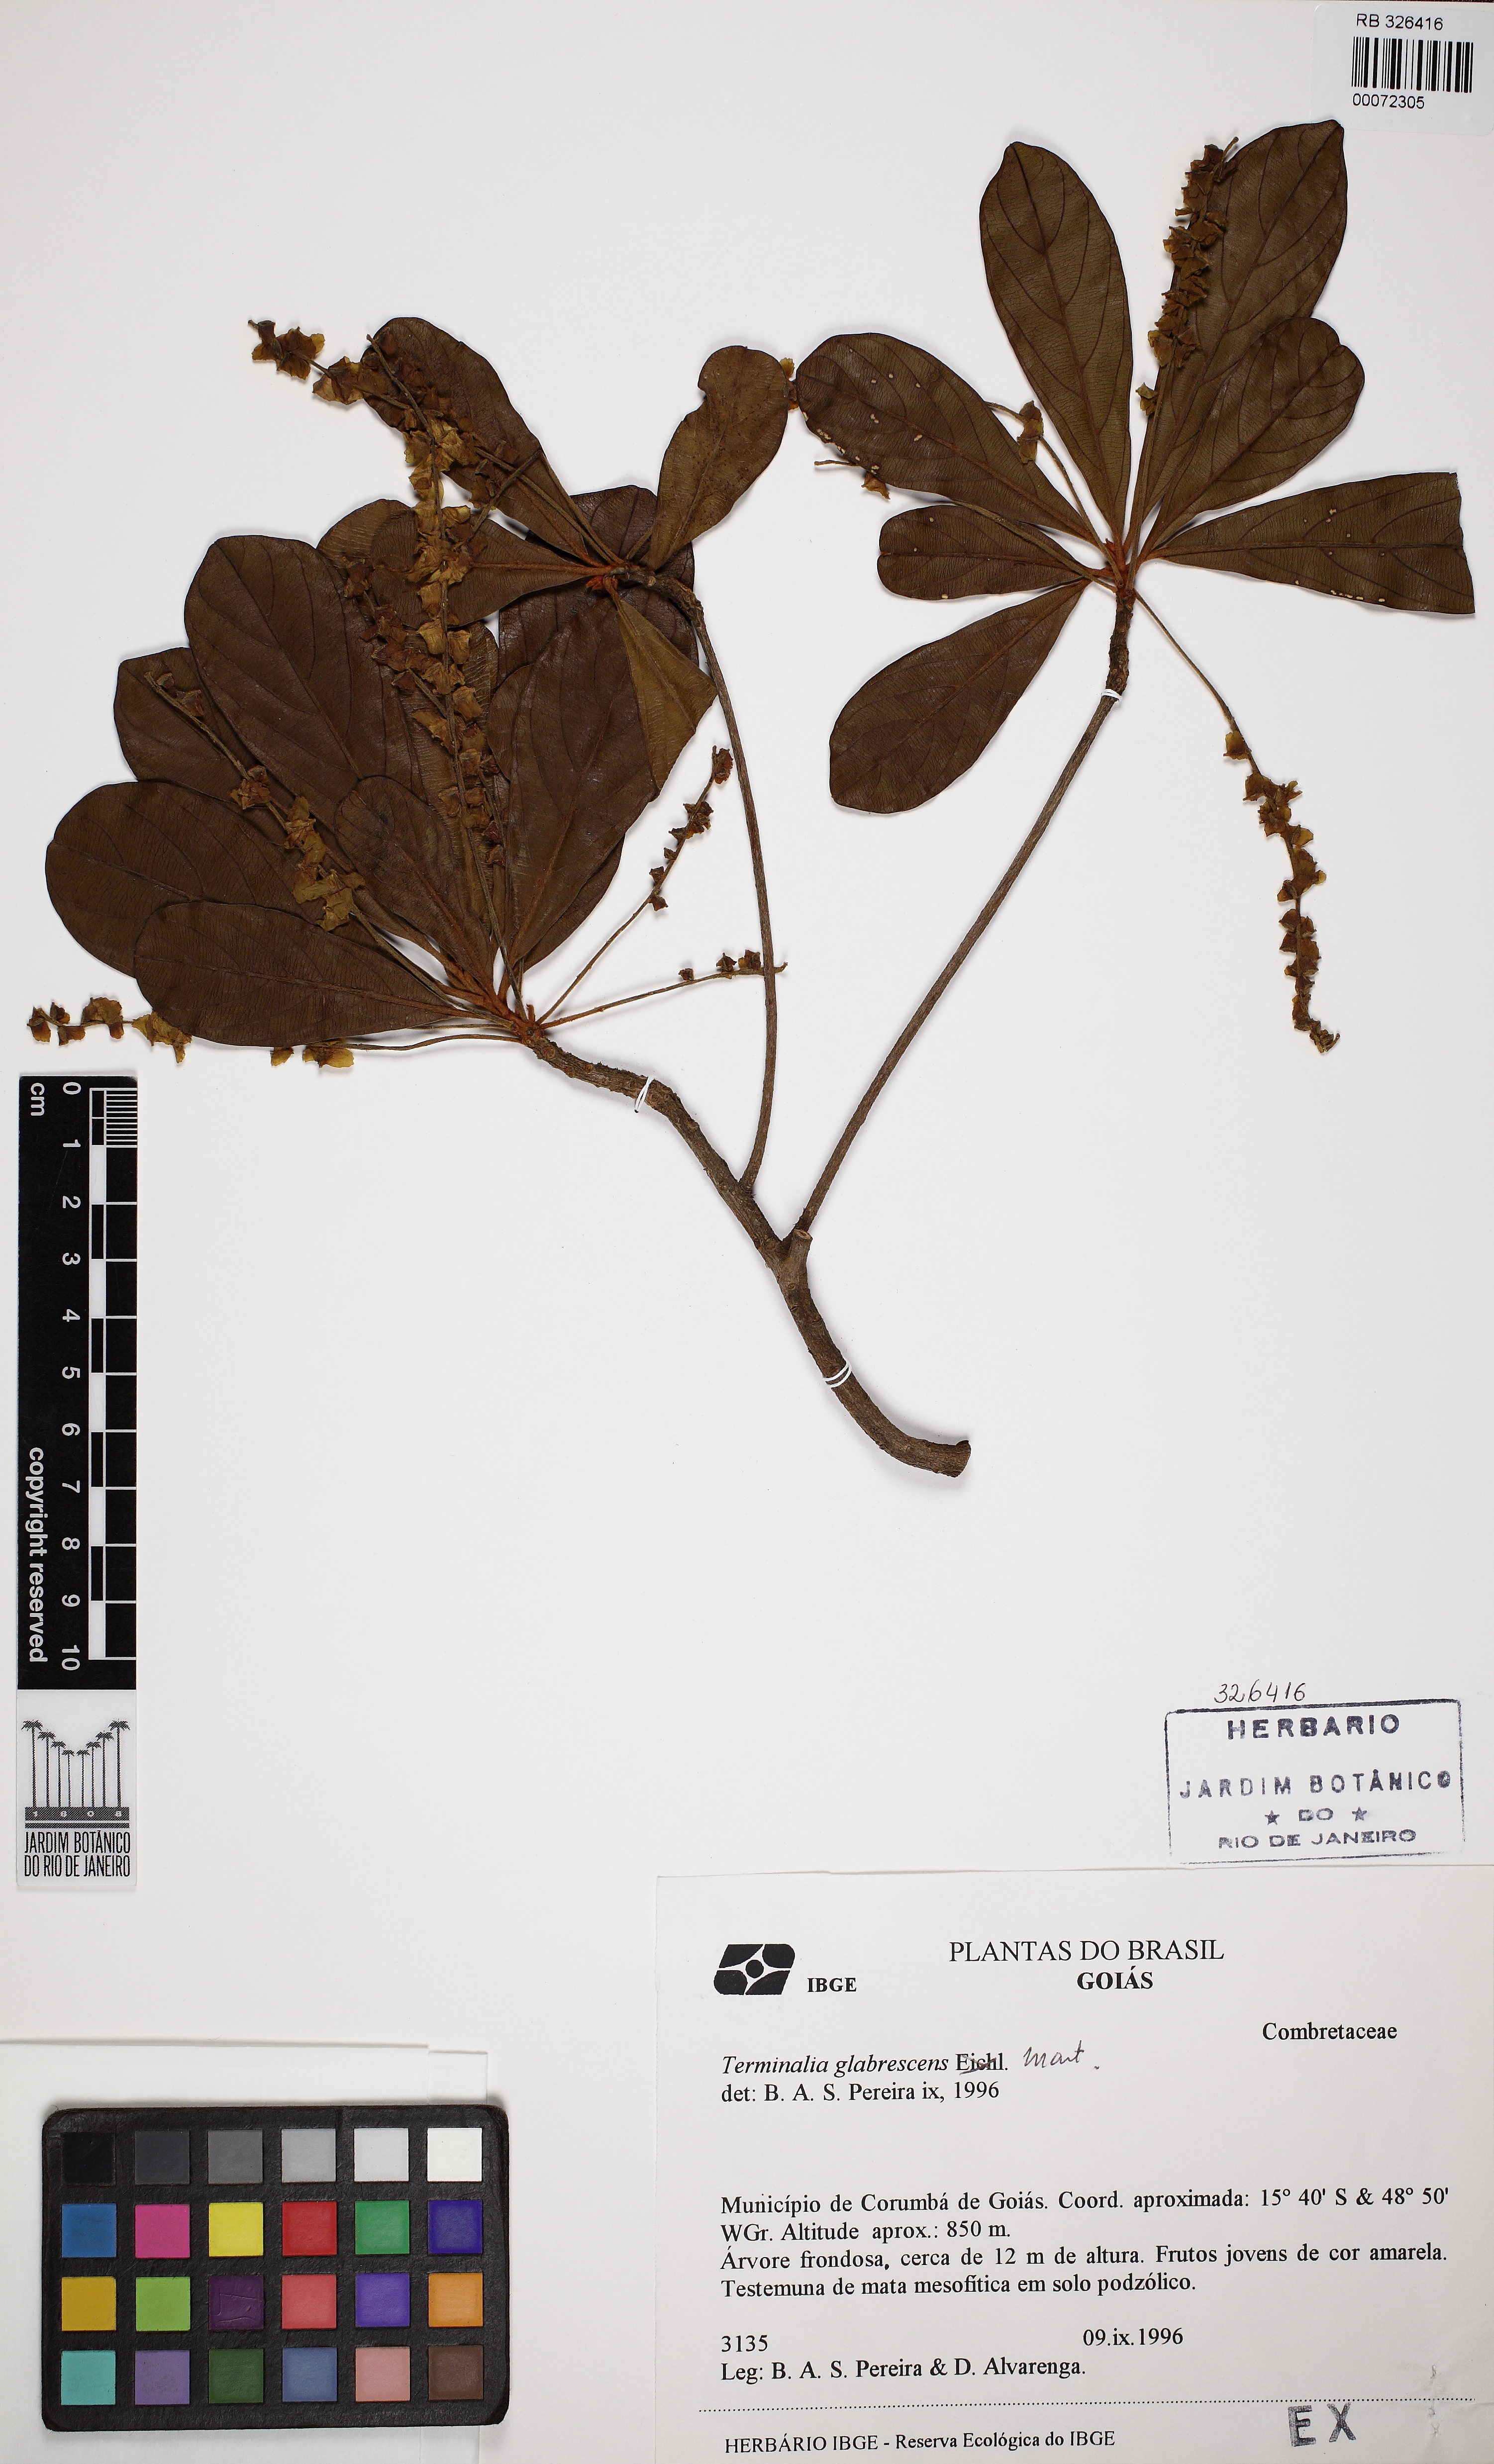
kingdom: Plantae
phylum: Tracheophyta
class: Magnoliopsida
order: Myrtales
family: Combretaceae
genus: Terminalia
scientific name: Terminalia glabrescens
